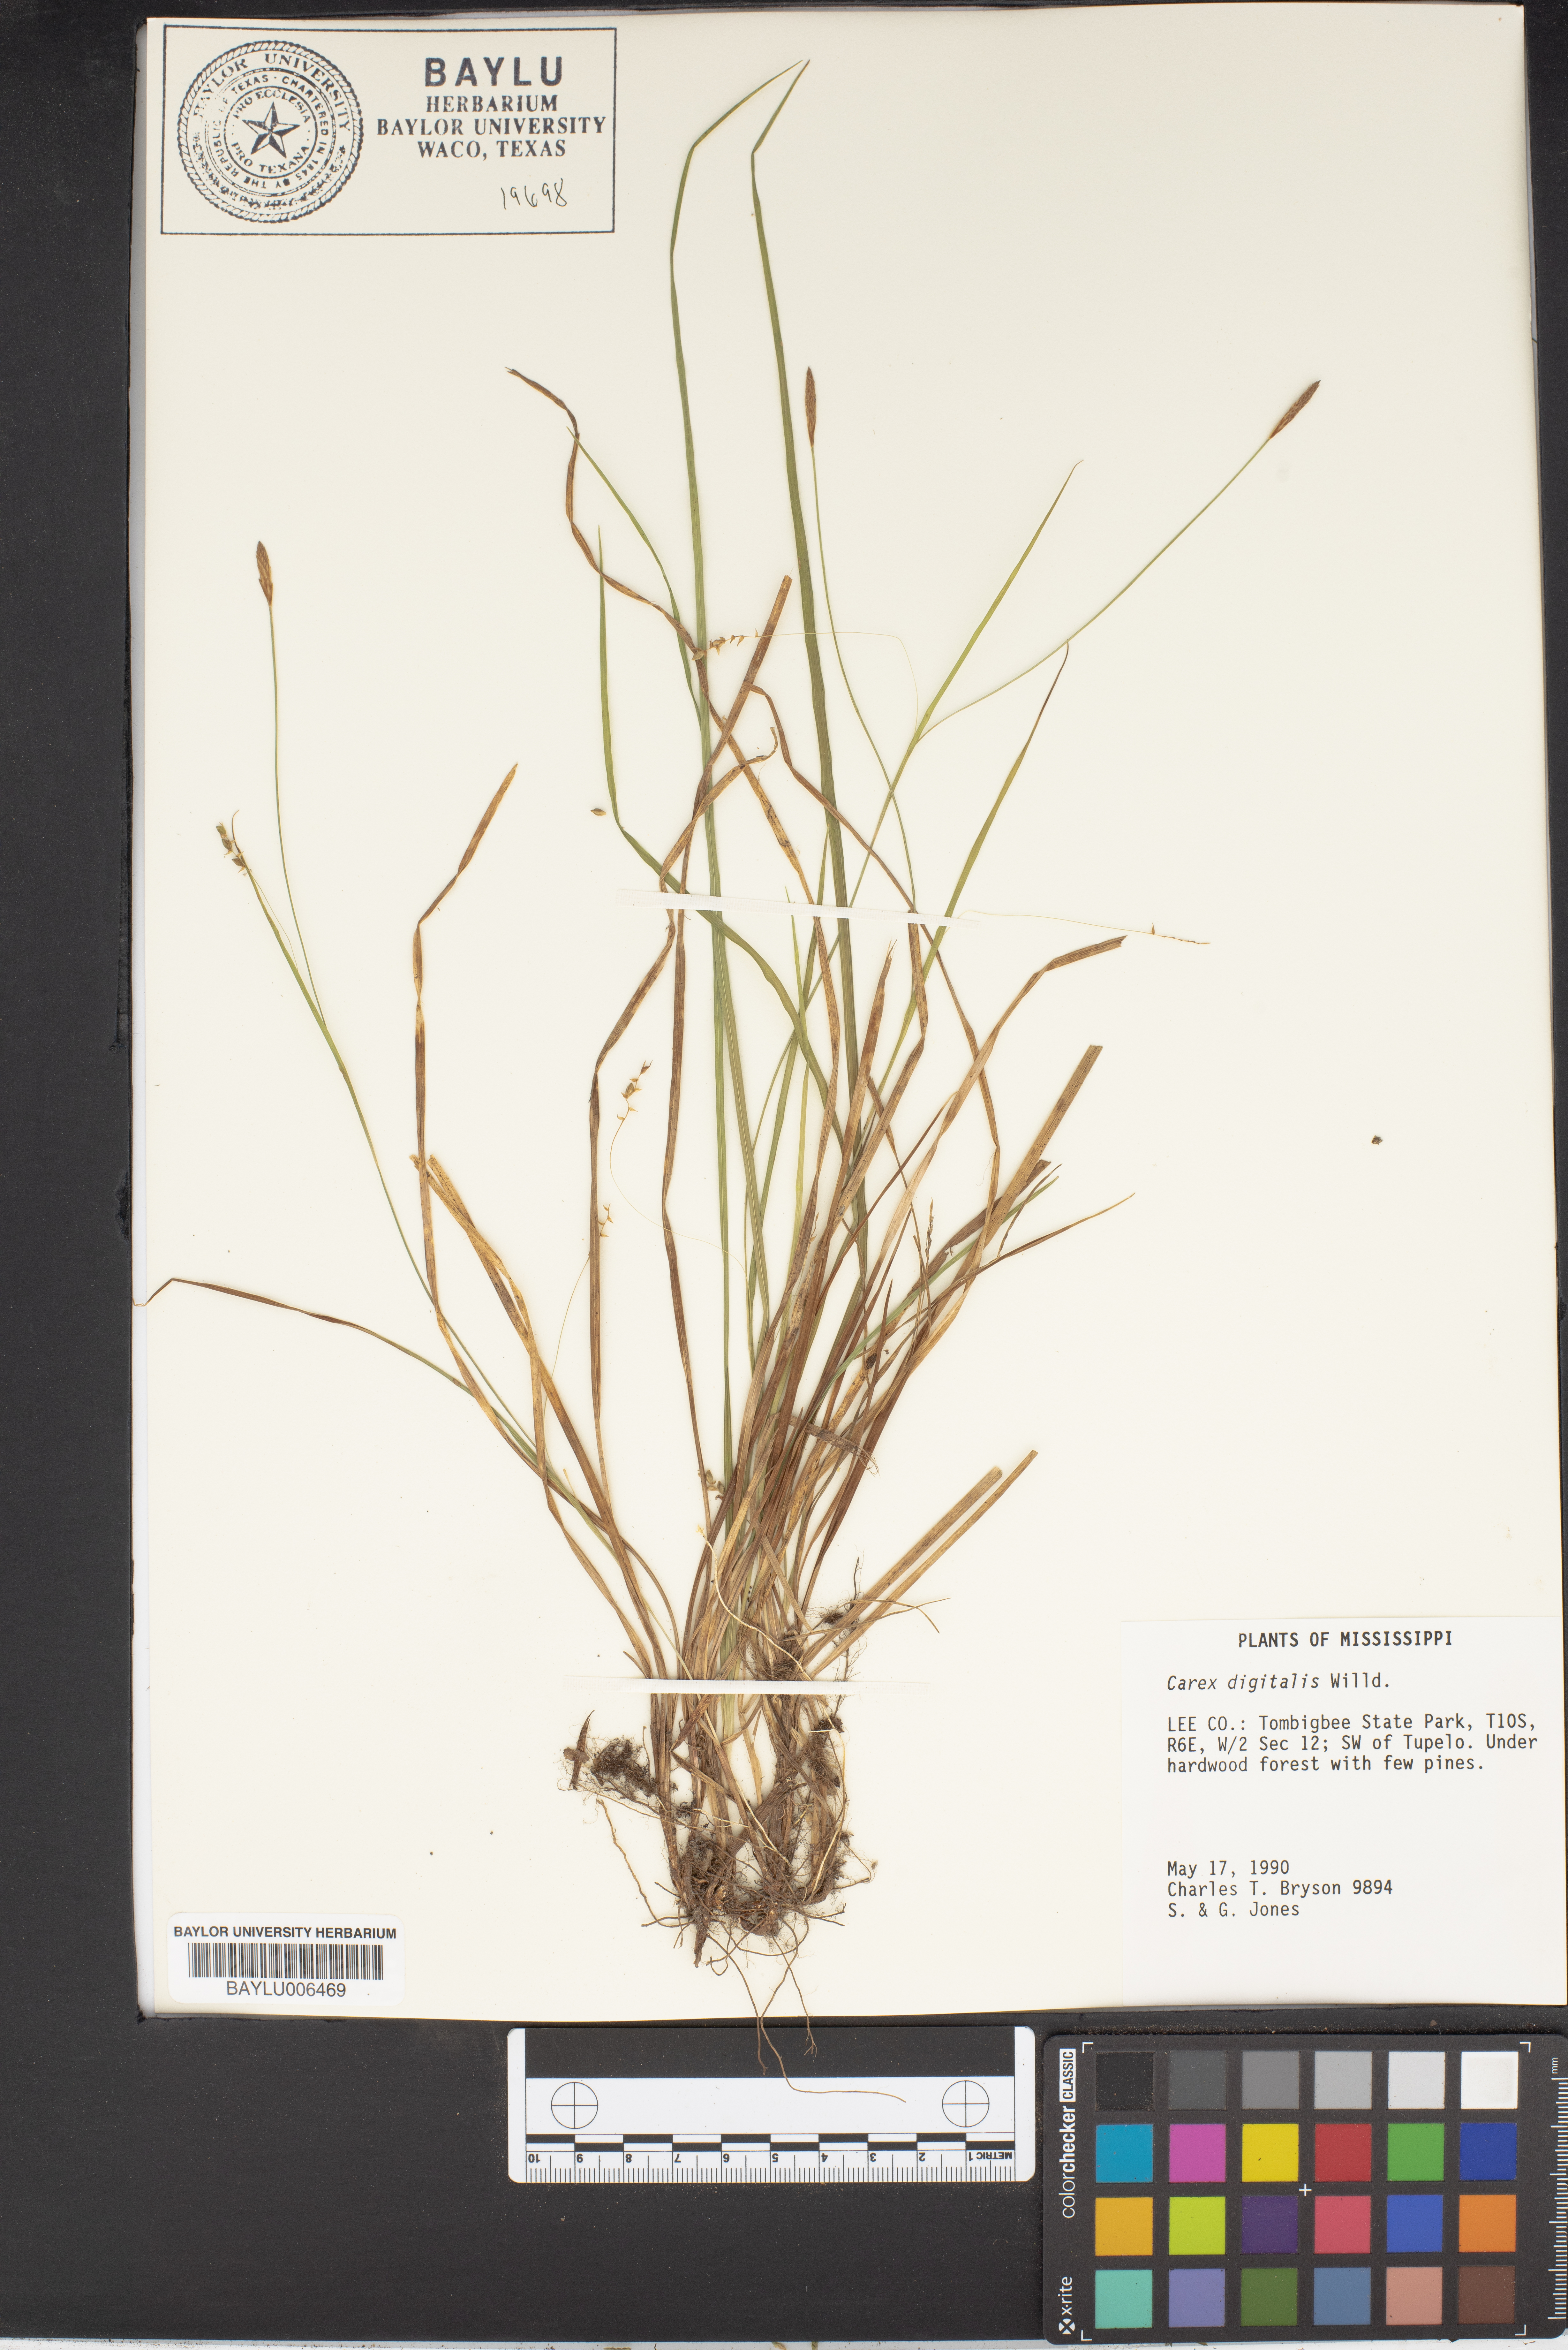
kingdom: Plantae
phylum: Tracheophyta
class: Liliopsida
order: Poales
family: Cyperaceae
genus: Carex
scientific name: Carex digitalis
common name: Slender wood sedge
